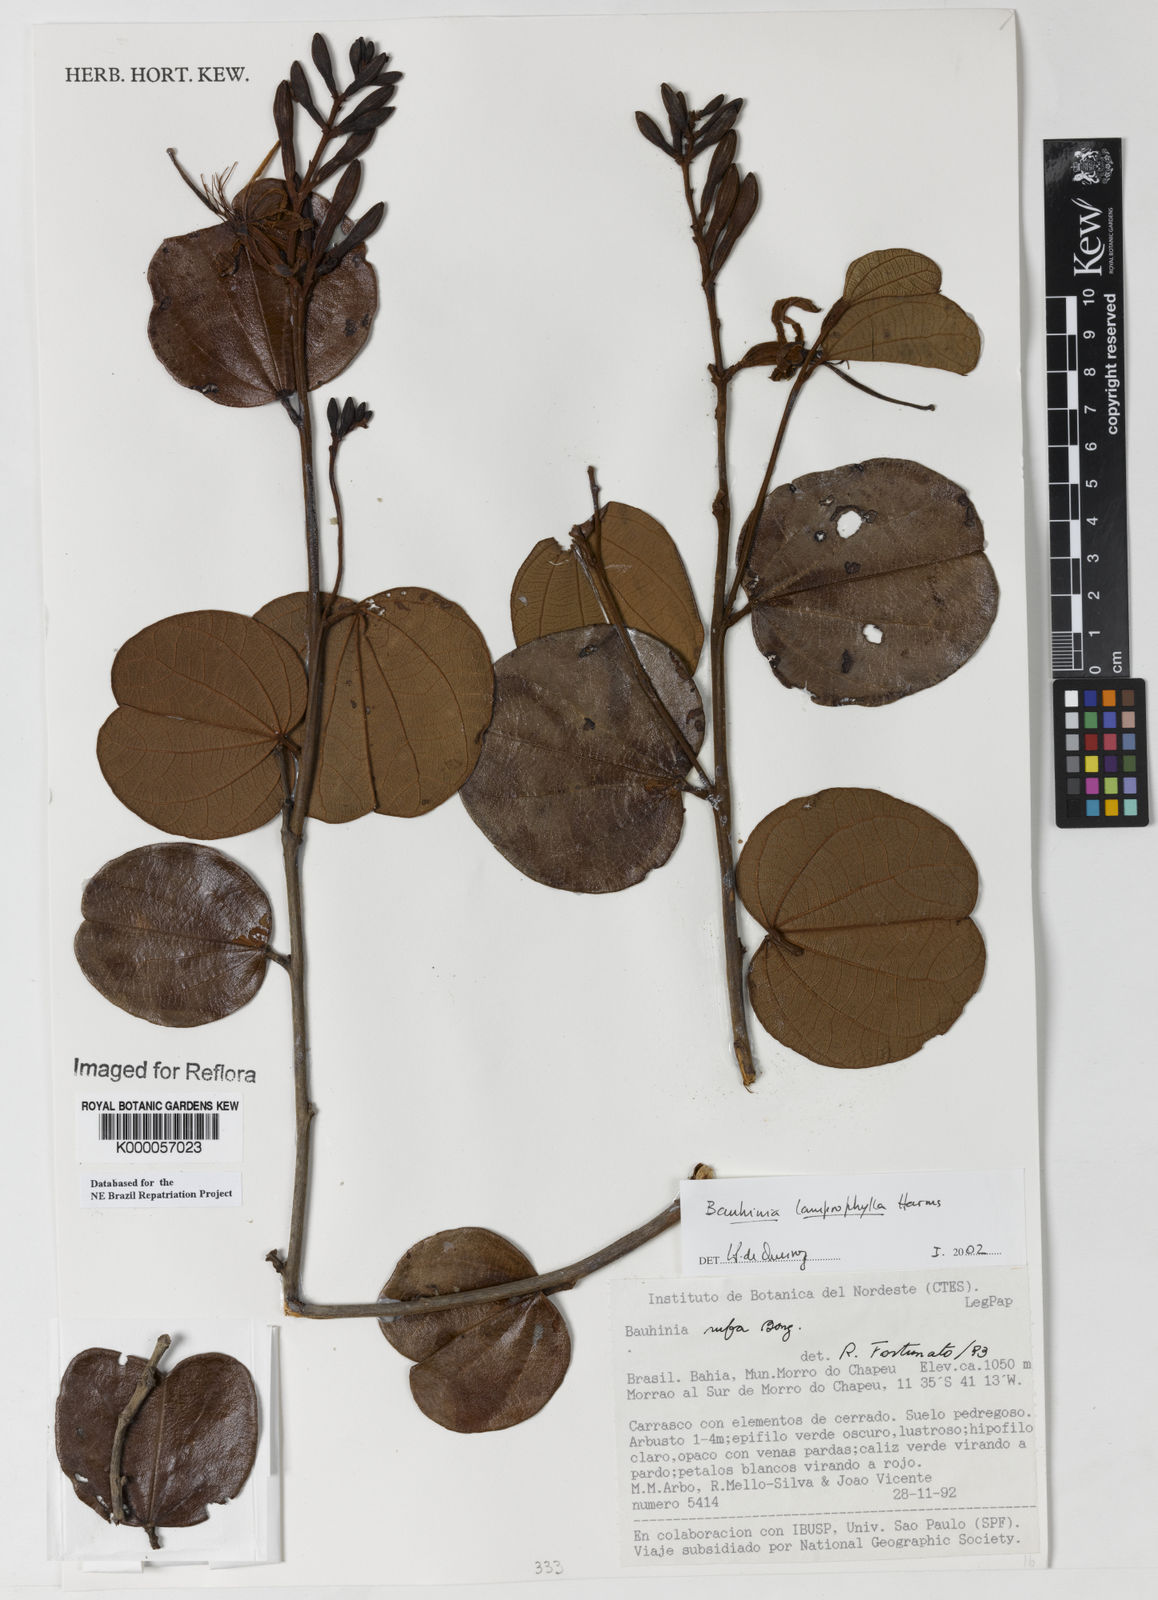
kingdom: Plantae
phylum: Tracheophyta
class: Magnoliopsida
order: Fabales
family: Fabaceae
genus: Bauhinia
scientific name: Bauhinia acuruana
